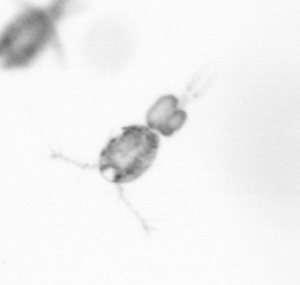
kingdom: Animalia
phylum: Arthropoda
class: Copepoda
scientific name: Copepoda
